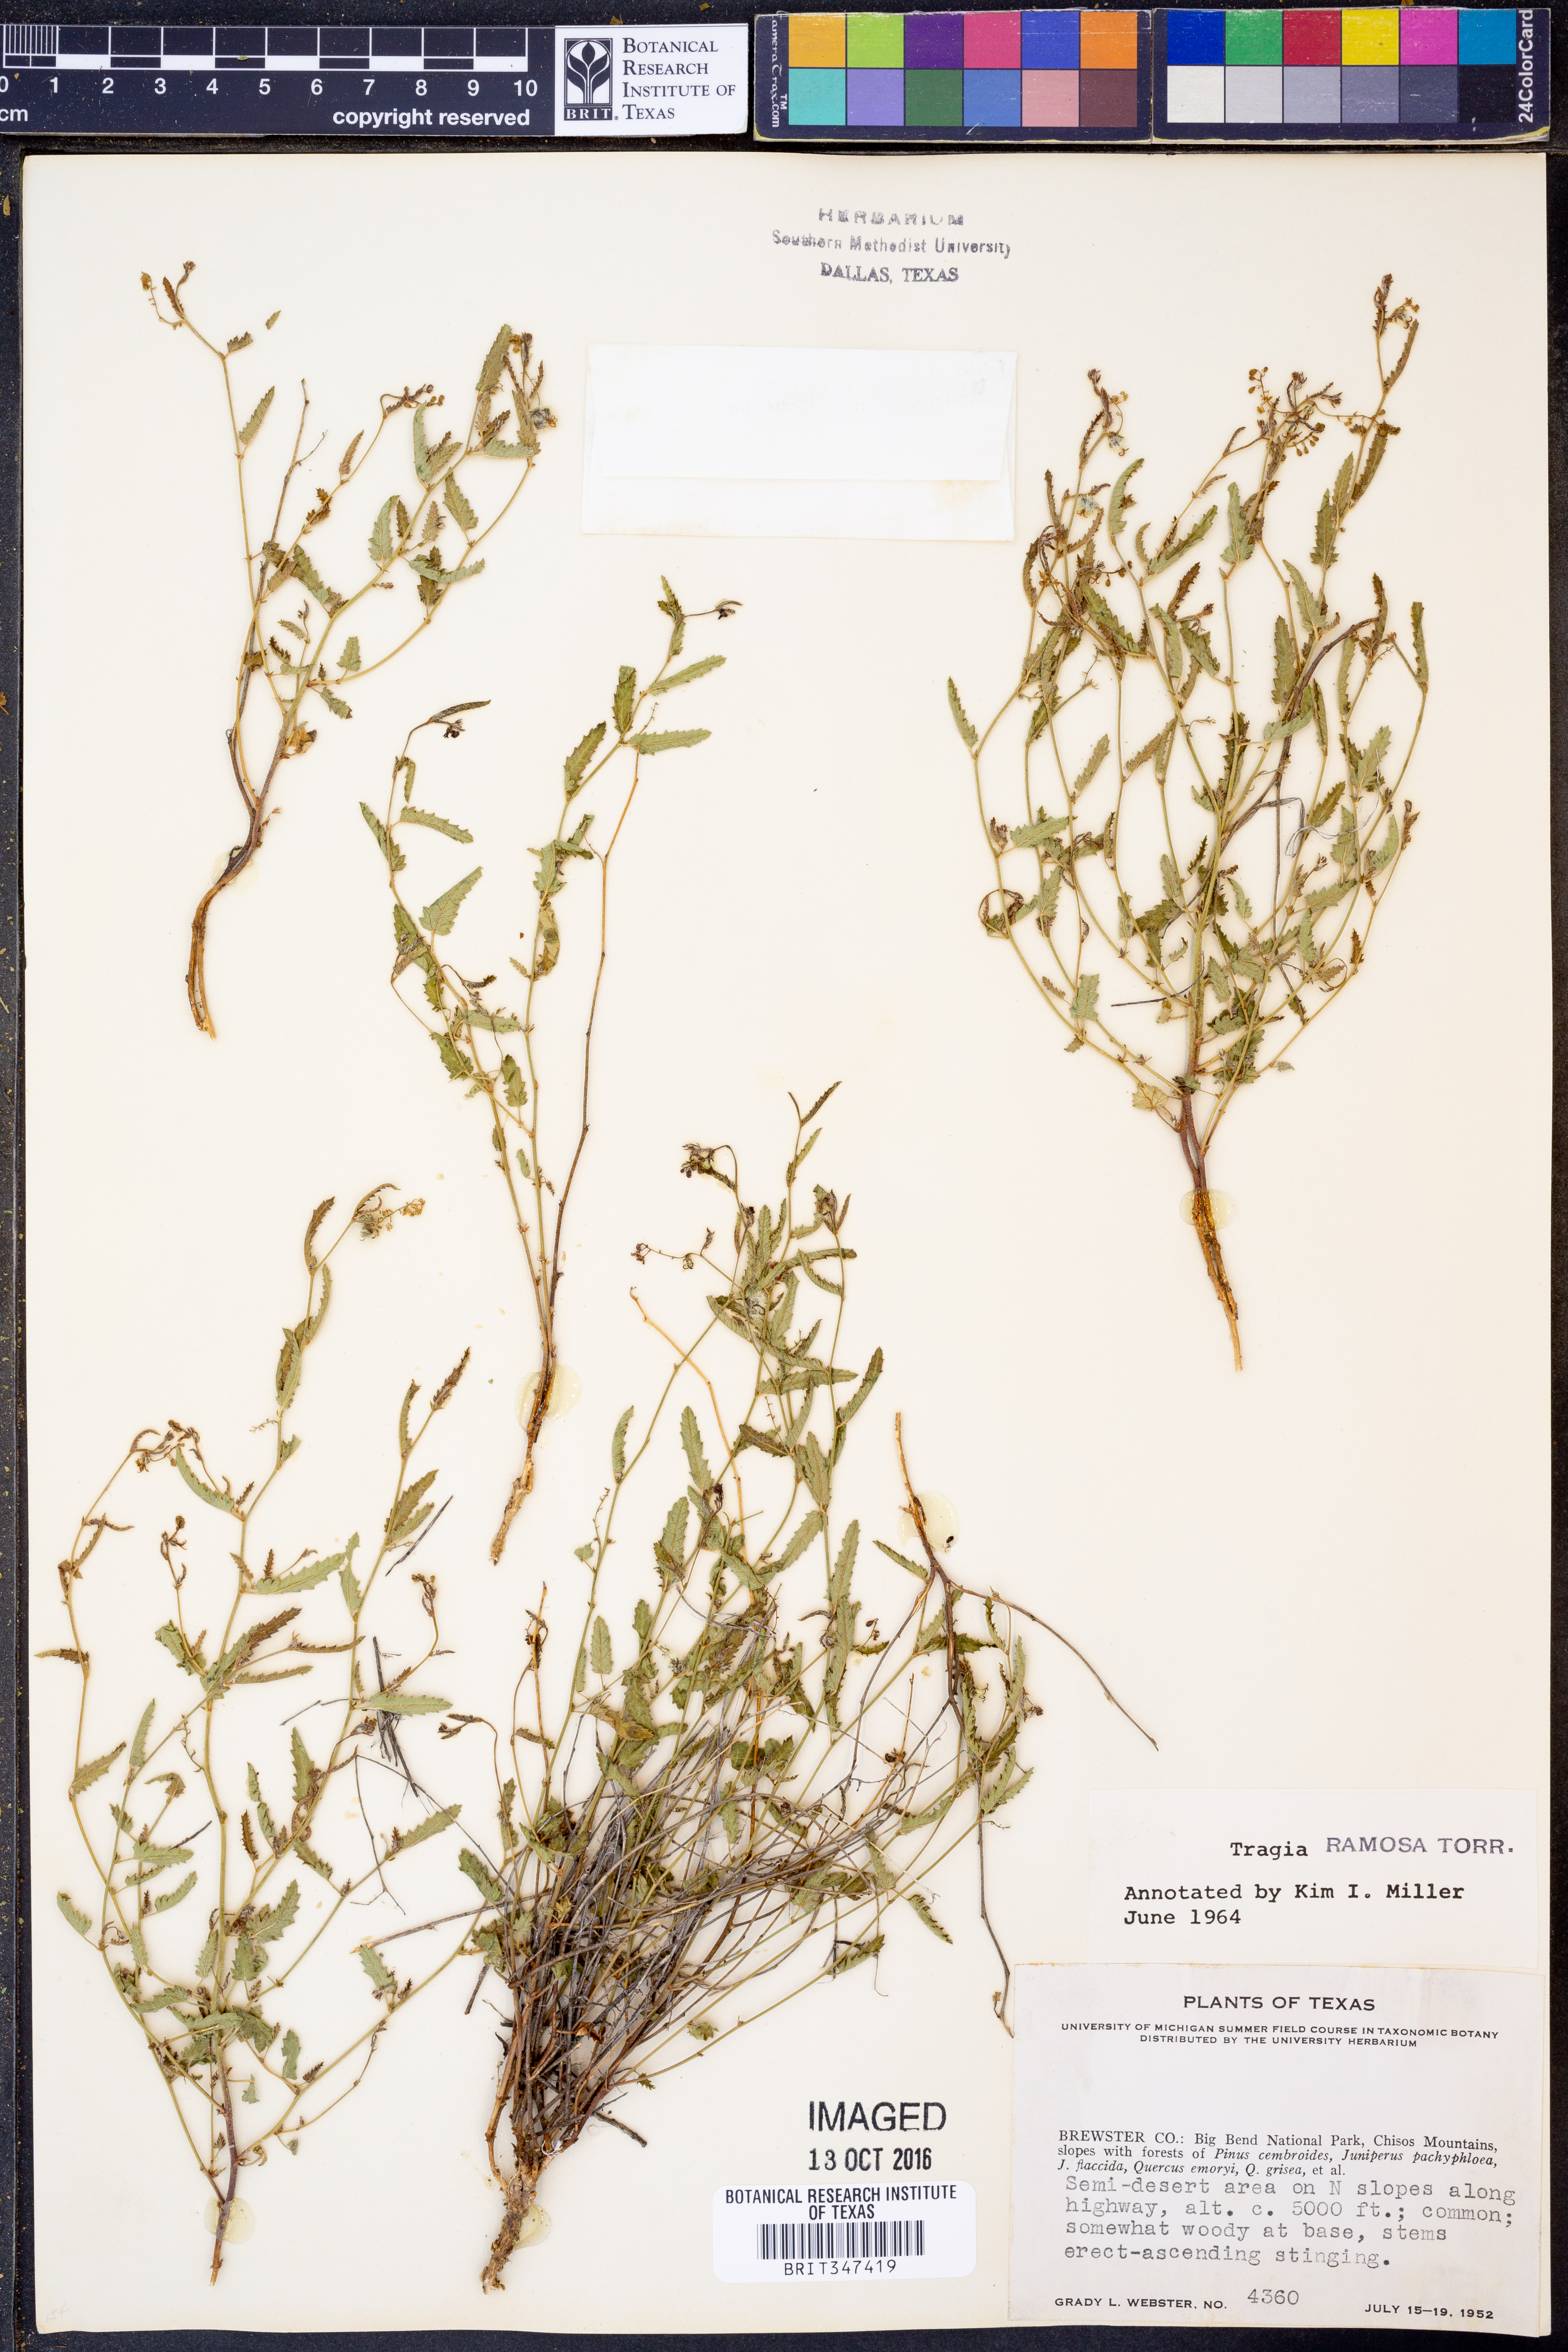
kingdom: Plantae
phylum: Tracheophyta
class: Magnoliopsida
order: Malpighiales
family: Euphorbiaceae
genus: Tragia
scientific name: Tragia ramosa
